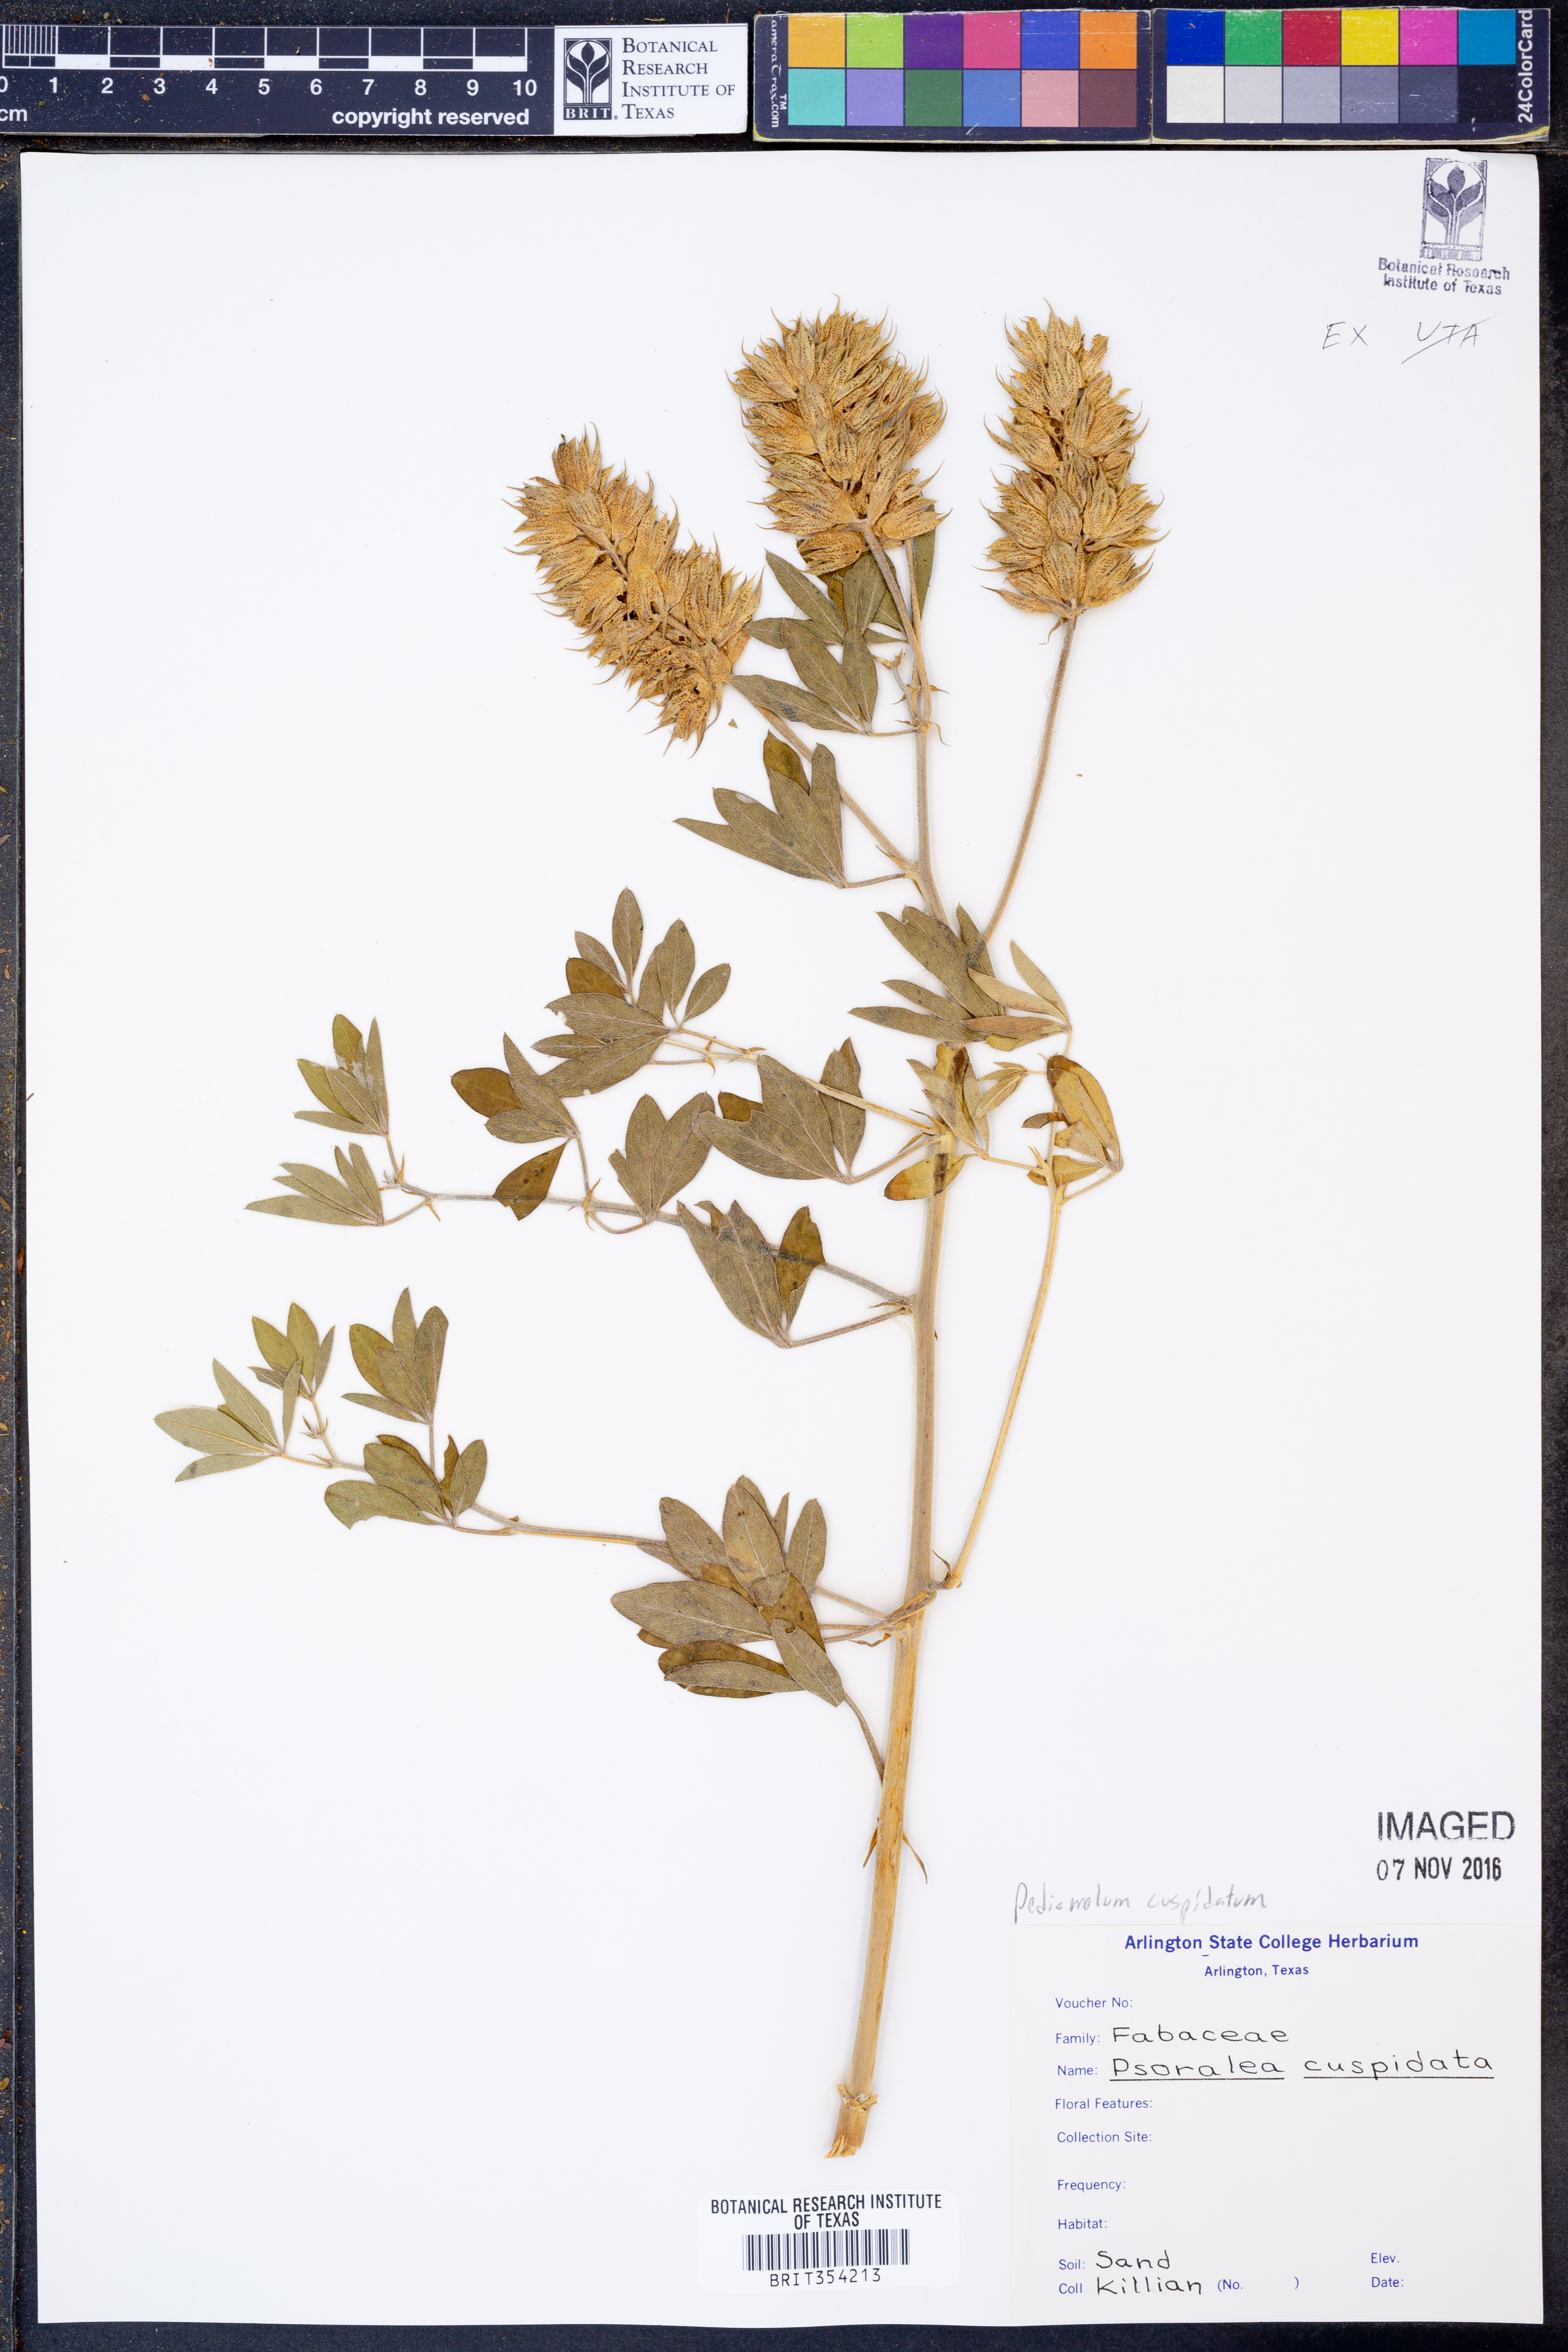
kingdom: Plantae
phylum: Tracheophyta
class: Magnoliopsida
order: Fabales
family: Fabaceae
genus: Pediomelum
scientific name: Pediomelum cuspidatum
